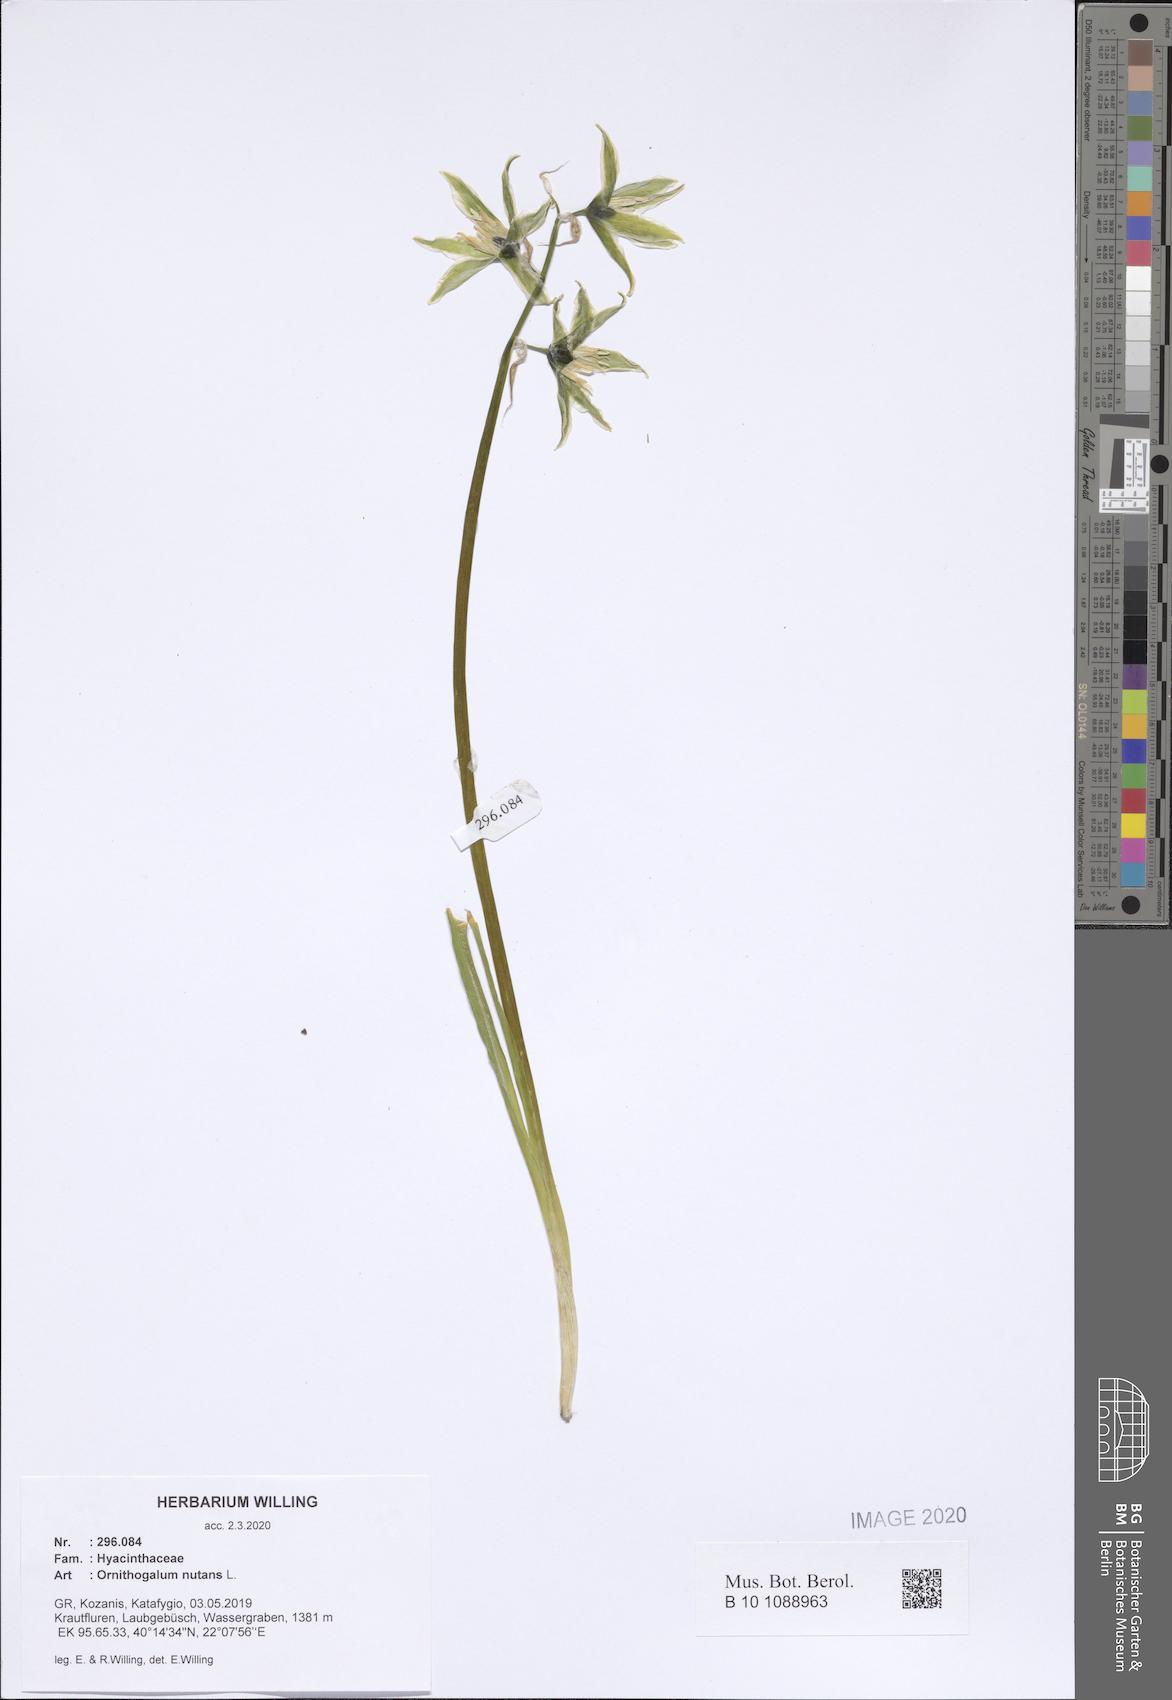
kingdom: Plantae
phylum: Tracheophyta
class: Liliopsida
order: Asparagales
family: Asparagaceae
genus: Ornithogalum
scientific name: Ornithogalum nutans
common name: Drooping star-of-bethlehem
